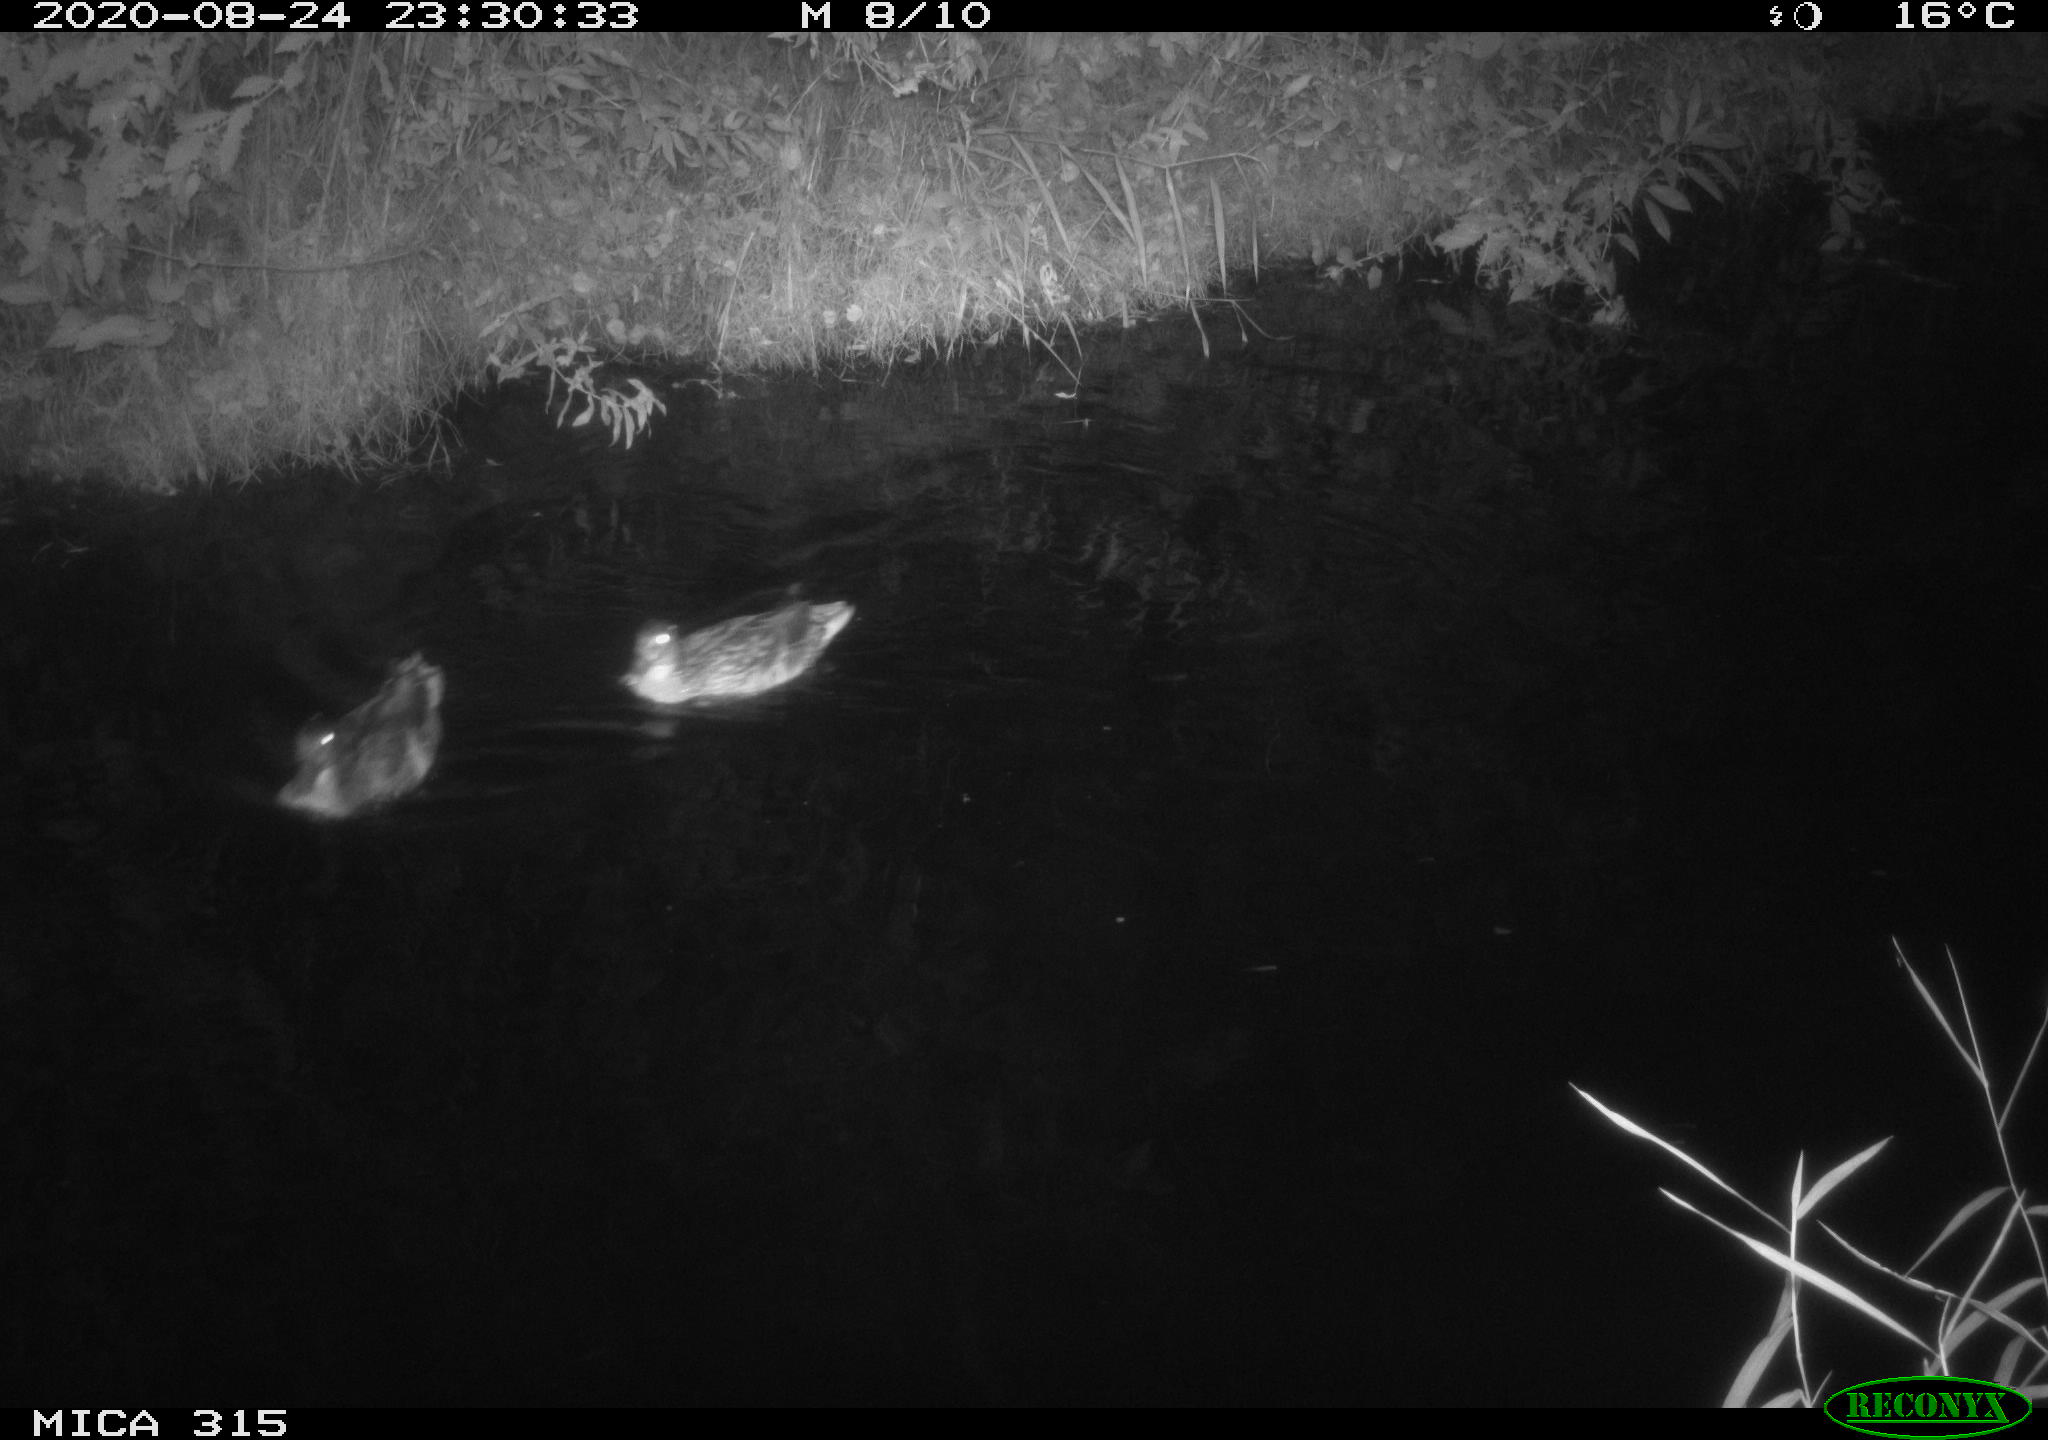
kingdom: Animalia
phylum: Chordata
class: Aves
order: Anseriformes
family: Anatidae
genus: Anas
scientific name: Anas platyrhynchos
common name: Mallard
